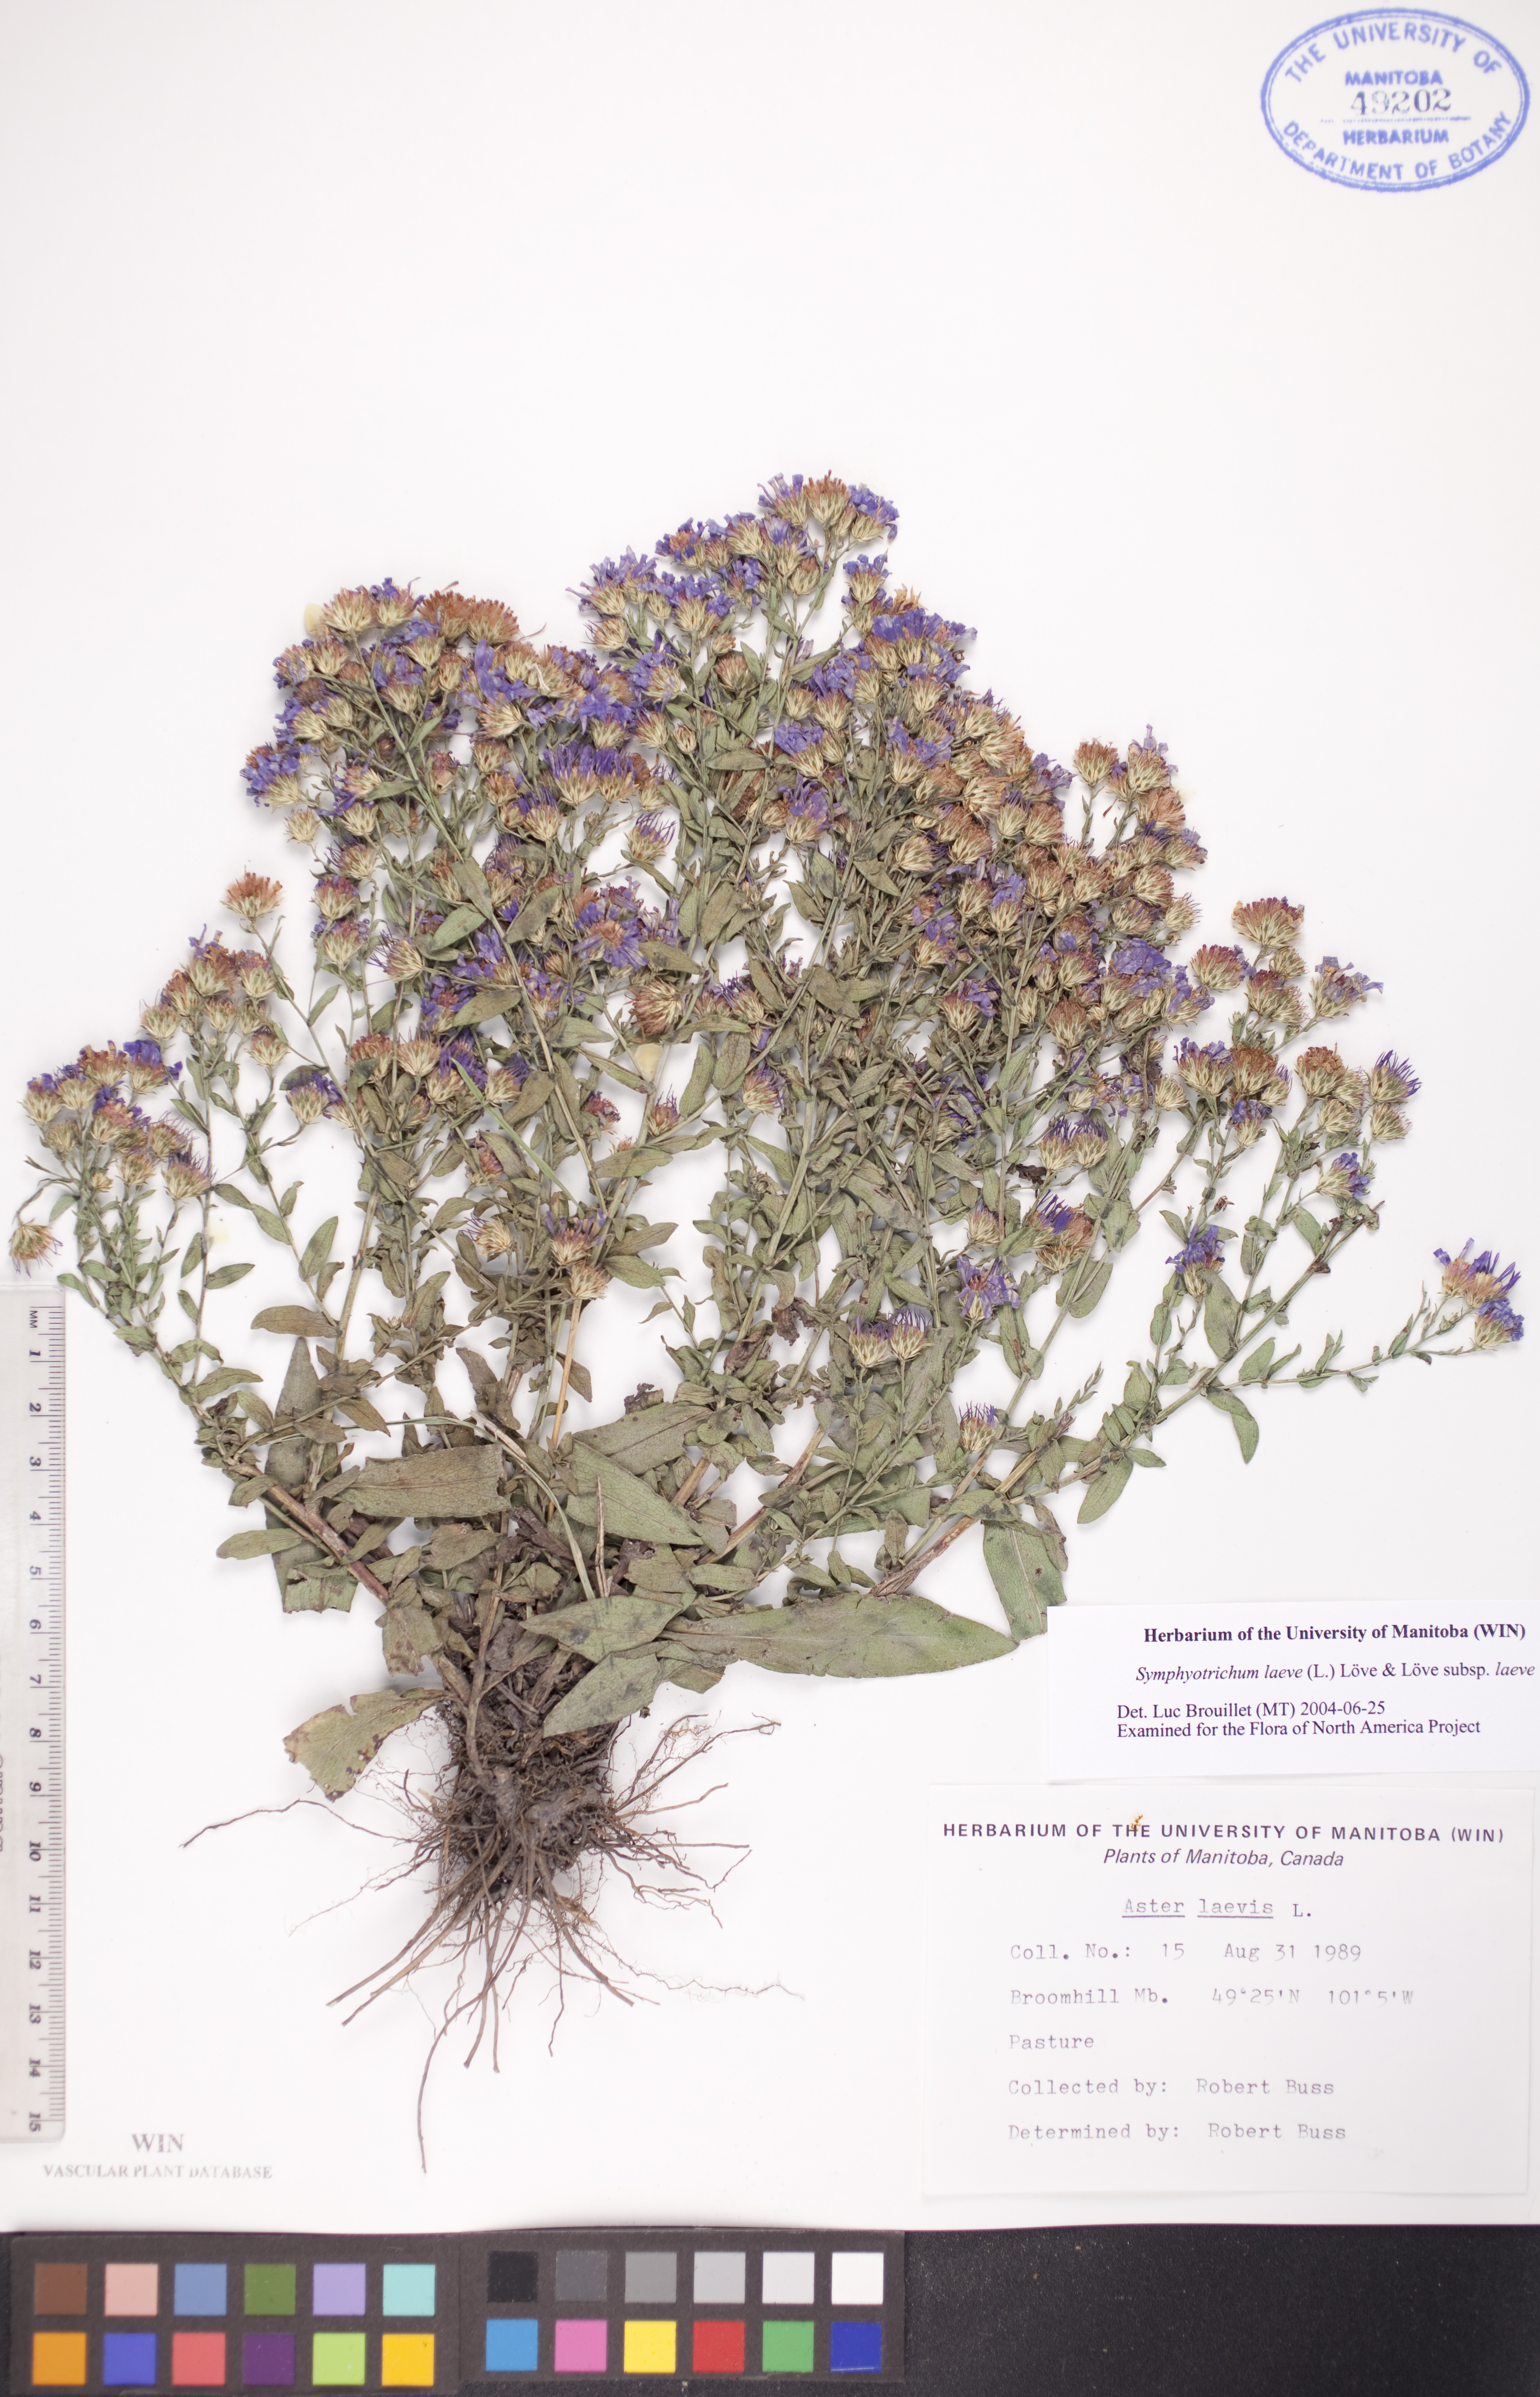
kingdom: Plantae
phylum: Tracheophyta
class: Magnoliopsida
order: Asterales
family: Asteraceae
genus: Symphyotrichum
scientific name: Symphyotrichum laeve
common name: Glaucous aster
